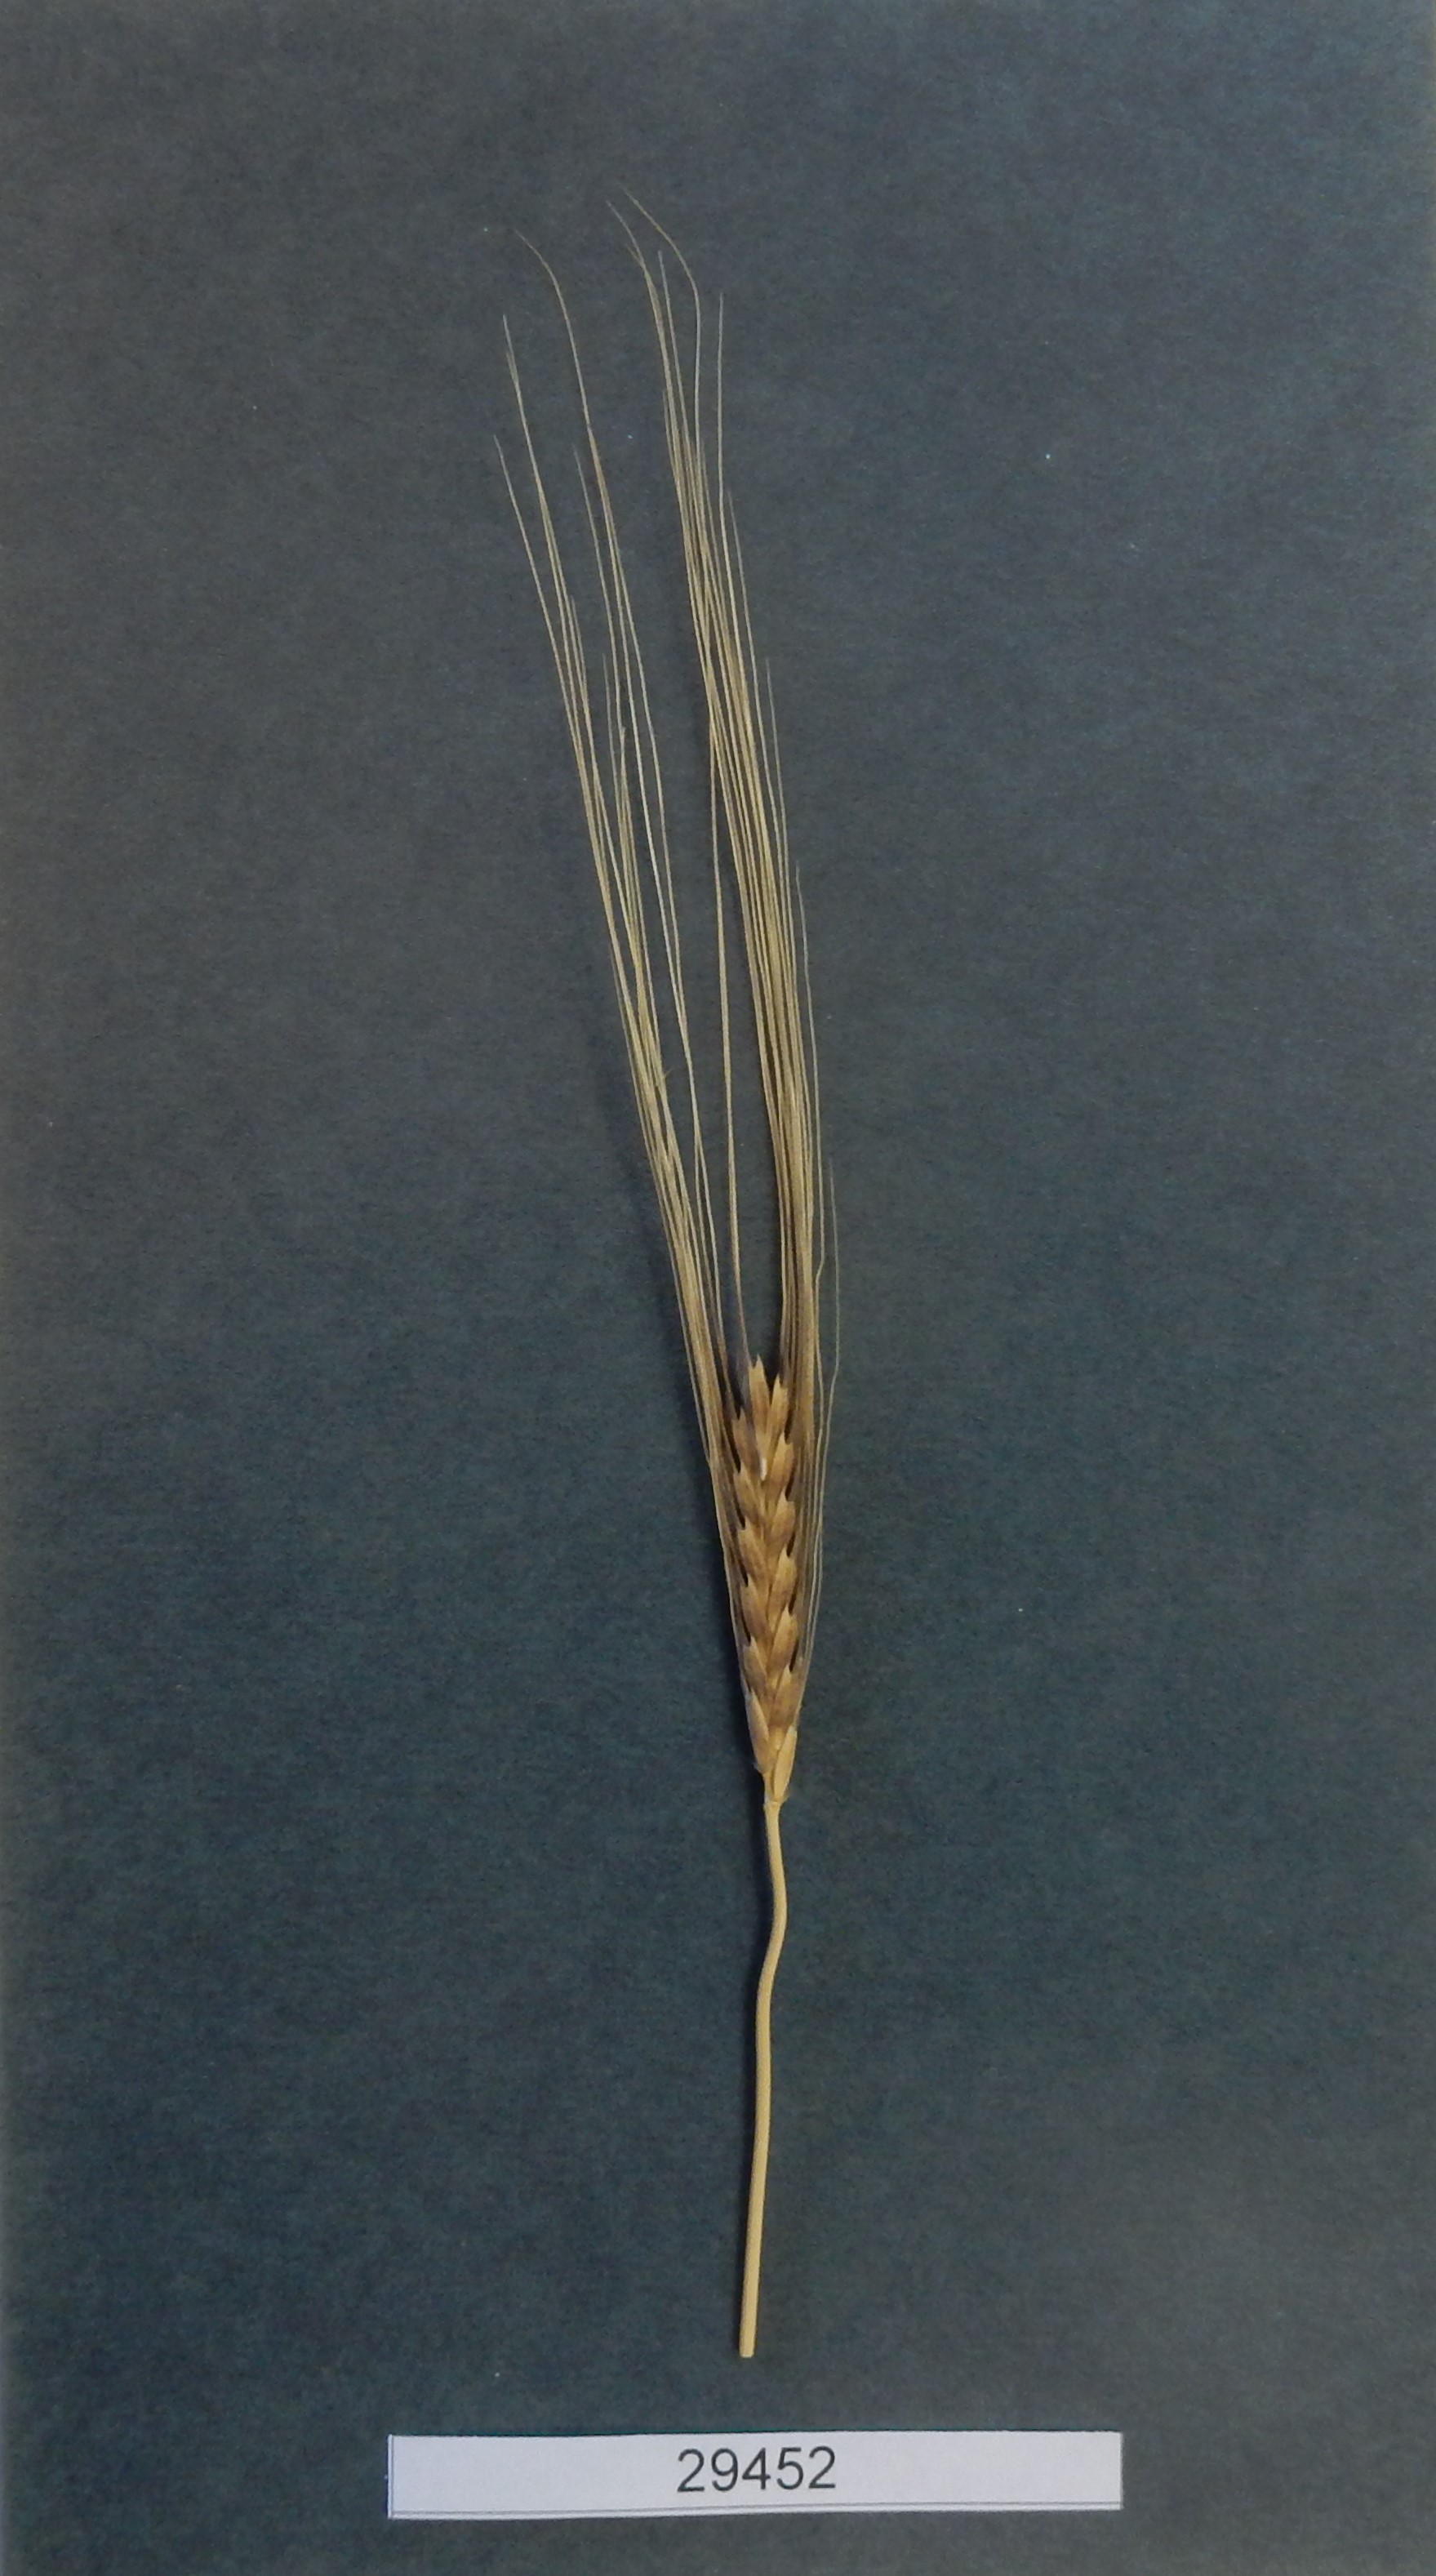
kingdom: Plantae
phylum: Tracheophyta
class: Liliopsida
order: Poales
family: Poaceae
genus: Triticum
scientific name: Triticum monococcum
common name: Wheat
